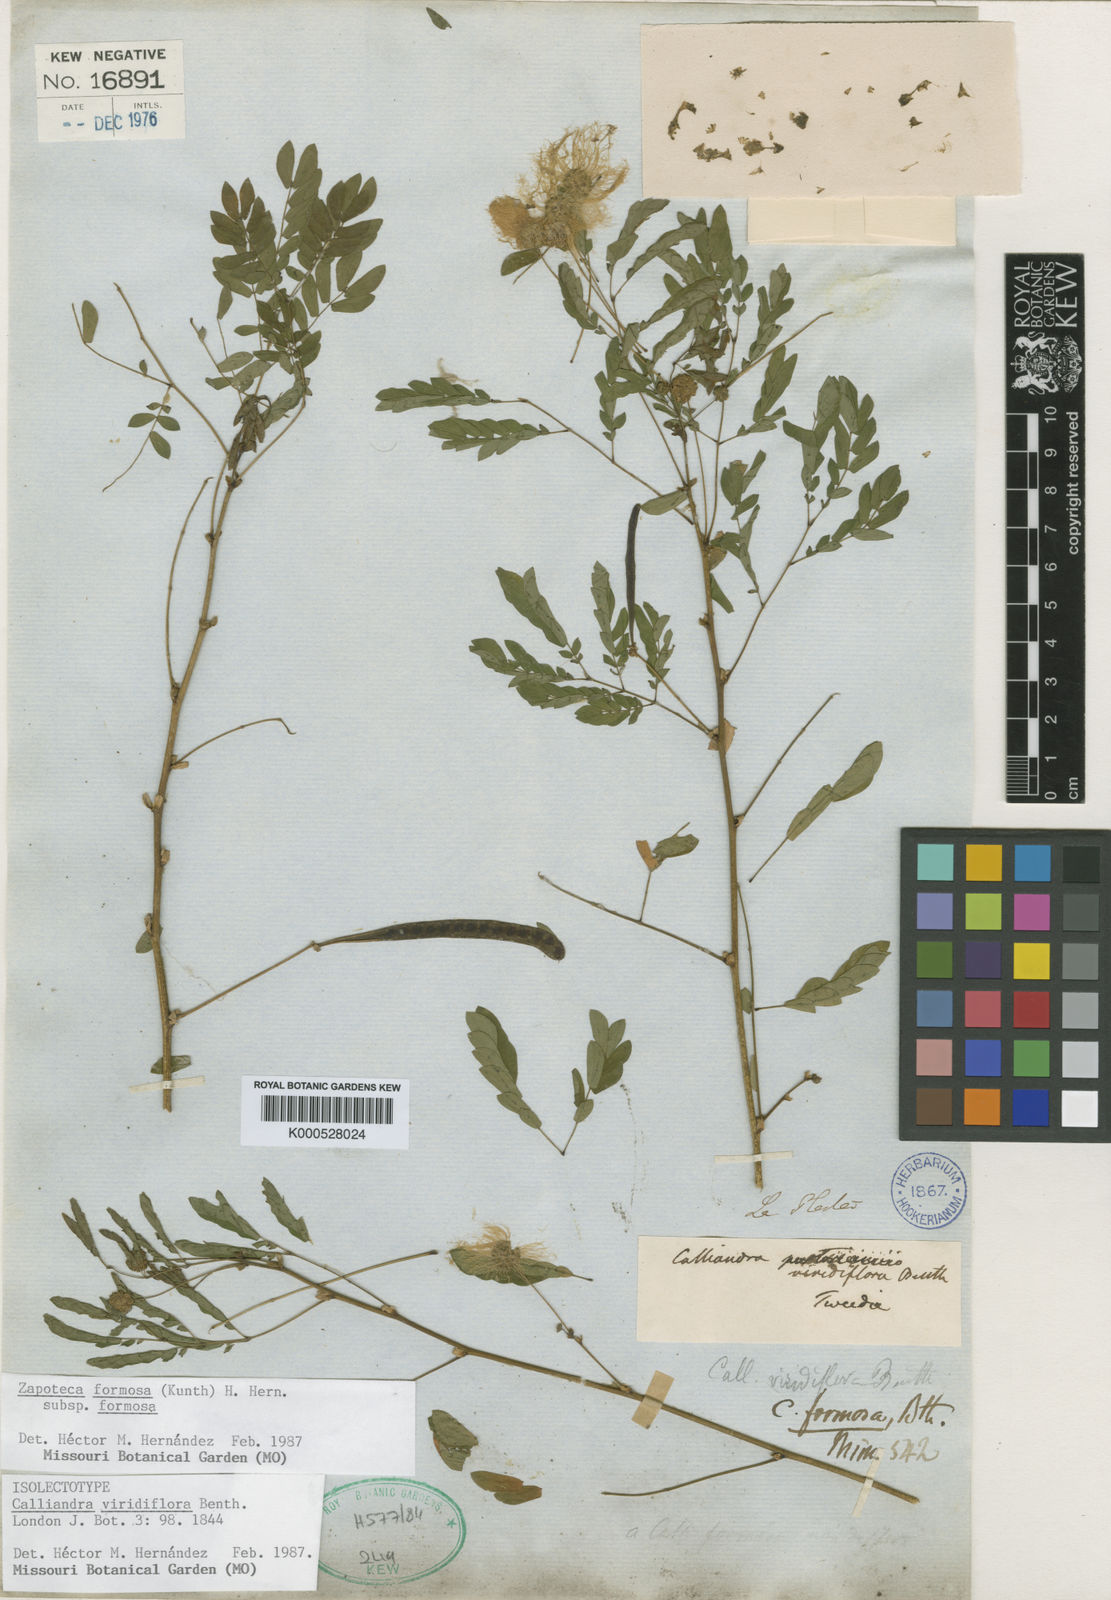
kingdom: Plantae
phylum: Tracheophyta
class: Magnoliopsida
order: Fabales
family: Fabaceae
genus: Zapoteca
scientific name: Zapoteca formosa
